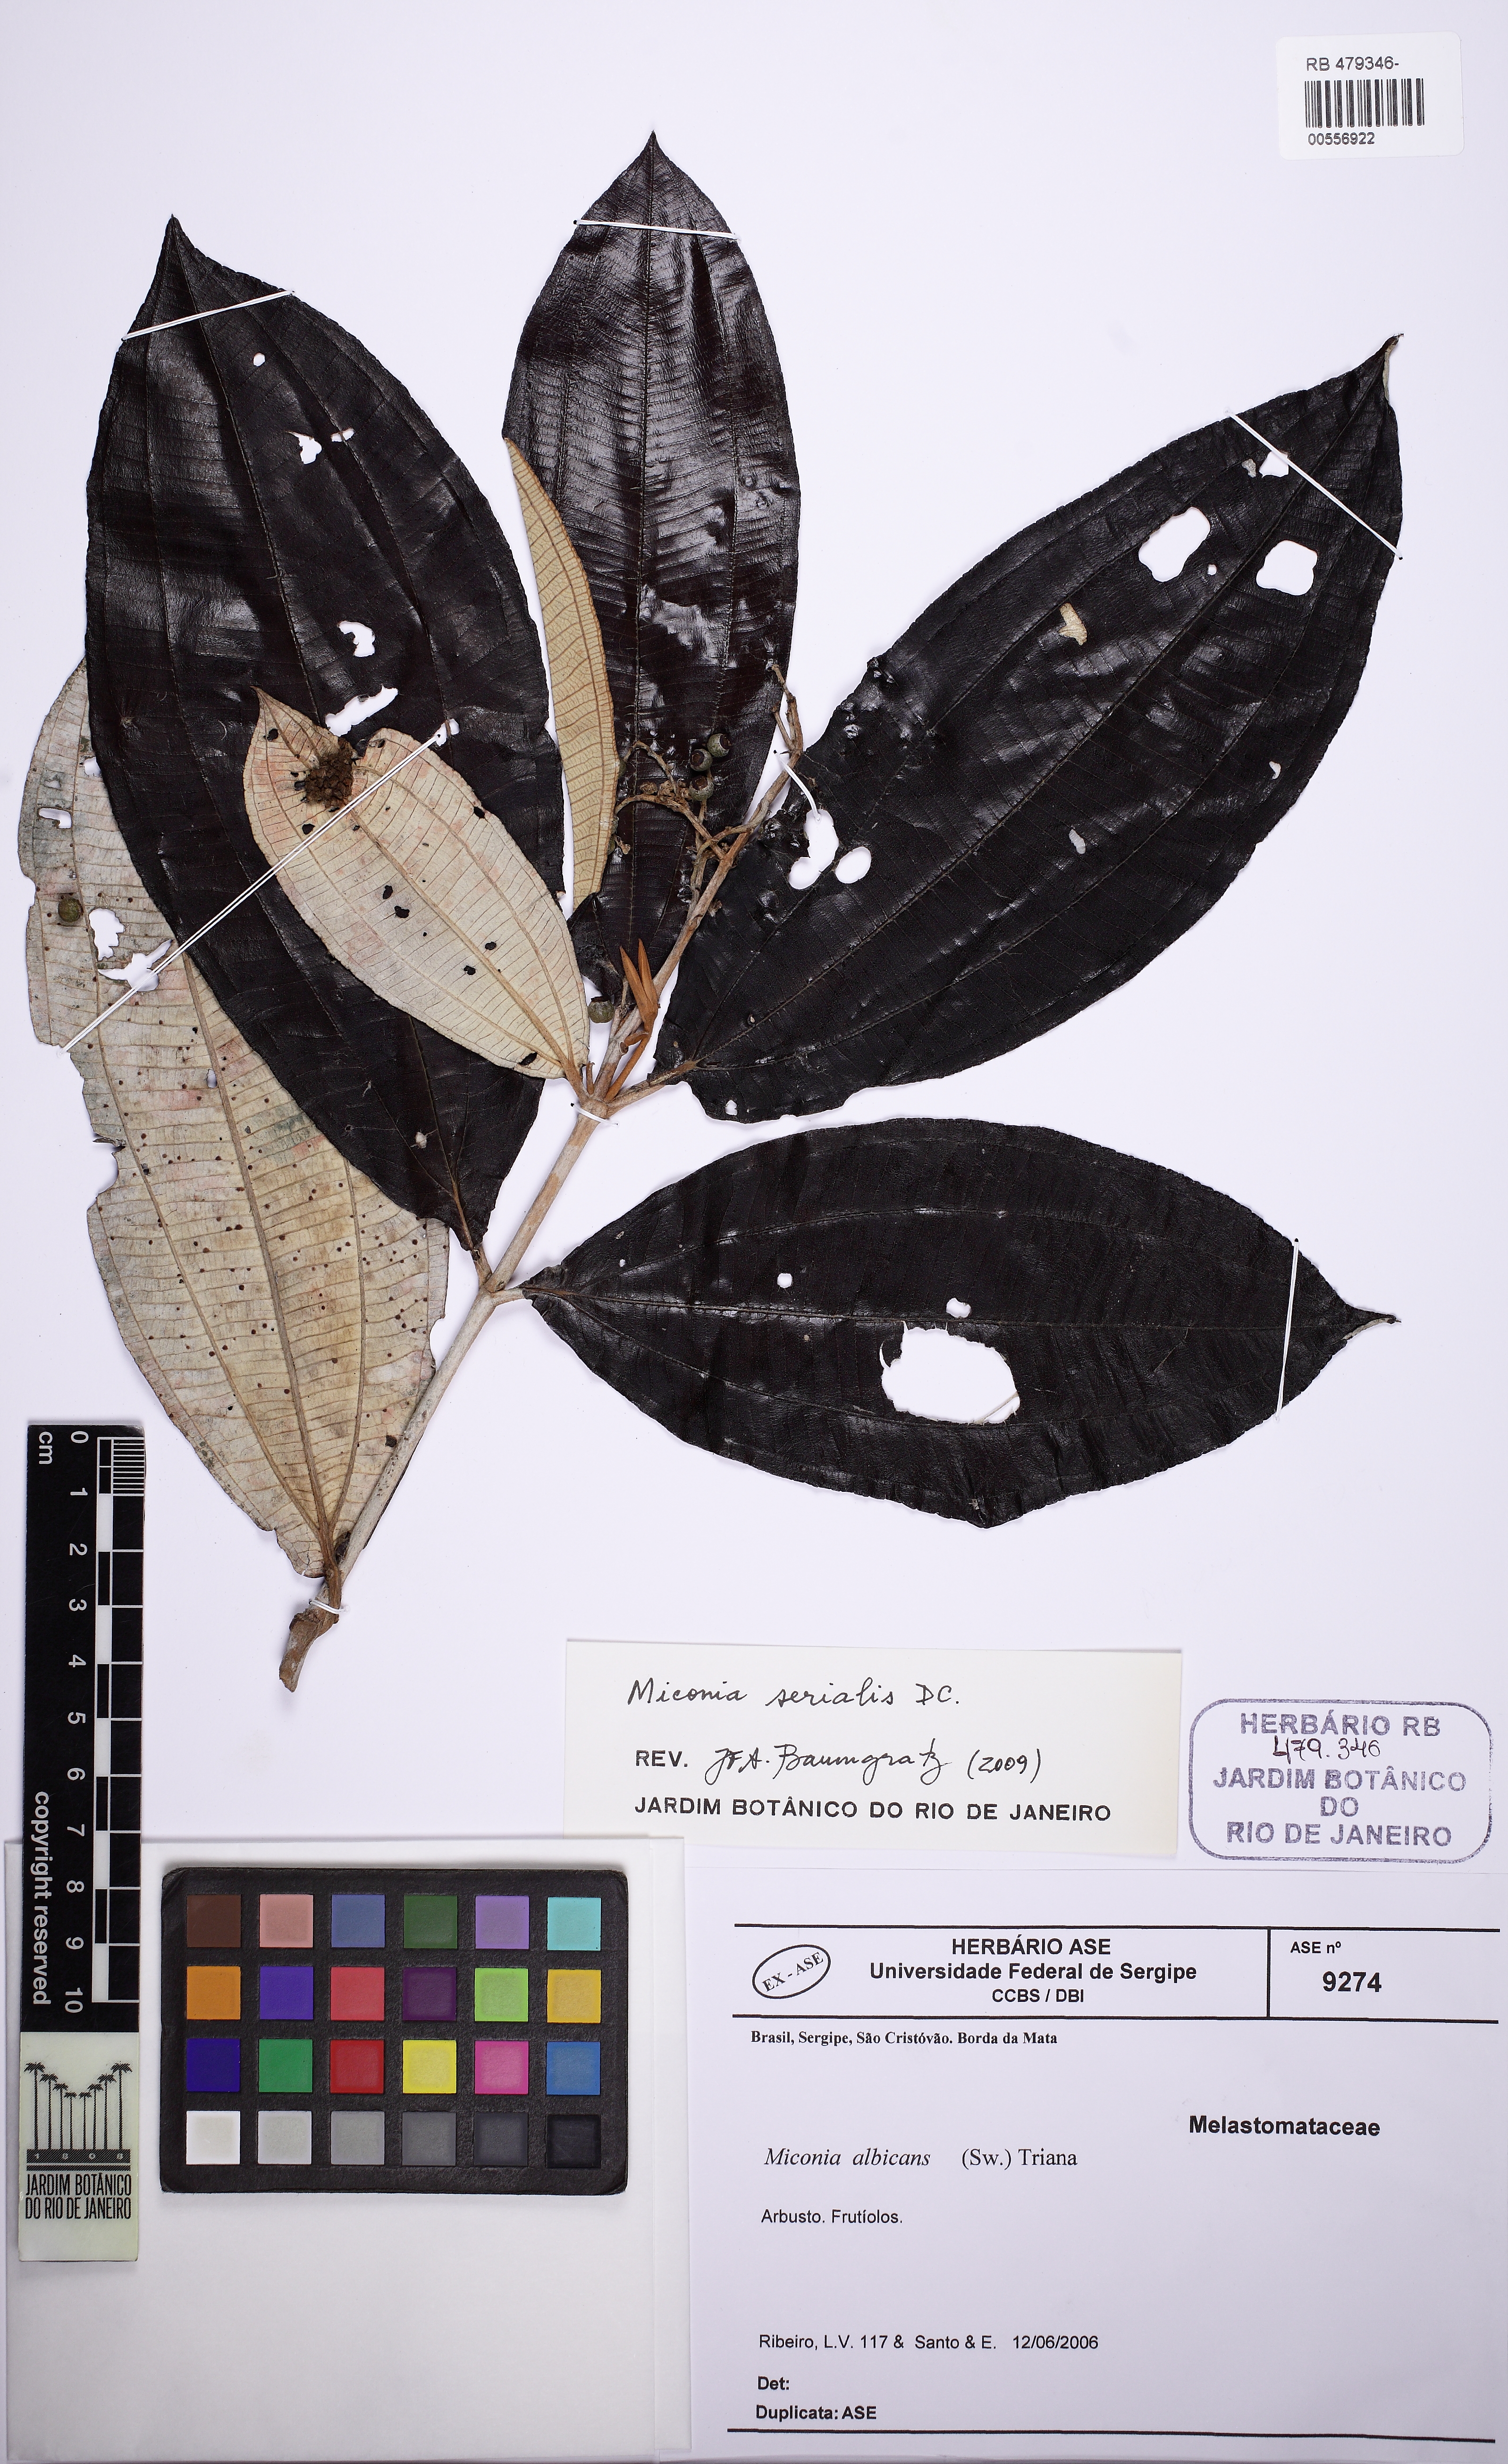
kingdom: Plantae
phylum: Tracheophyta
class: Magnoliopsida
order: Myrtales
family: Melastomataceae
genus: Miconia
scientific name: Miconia serialis
